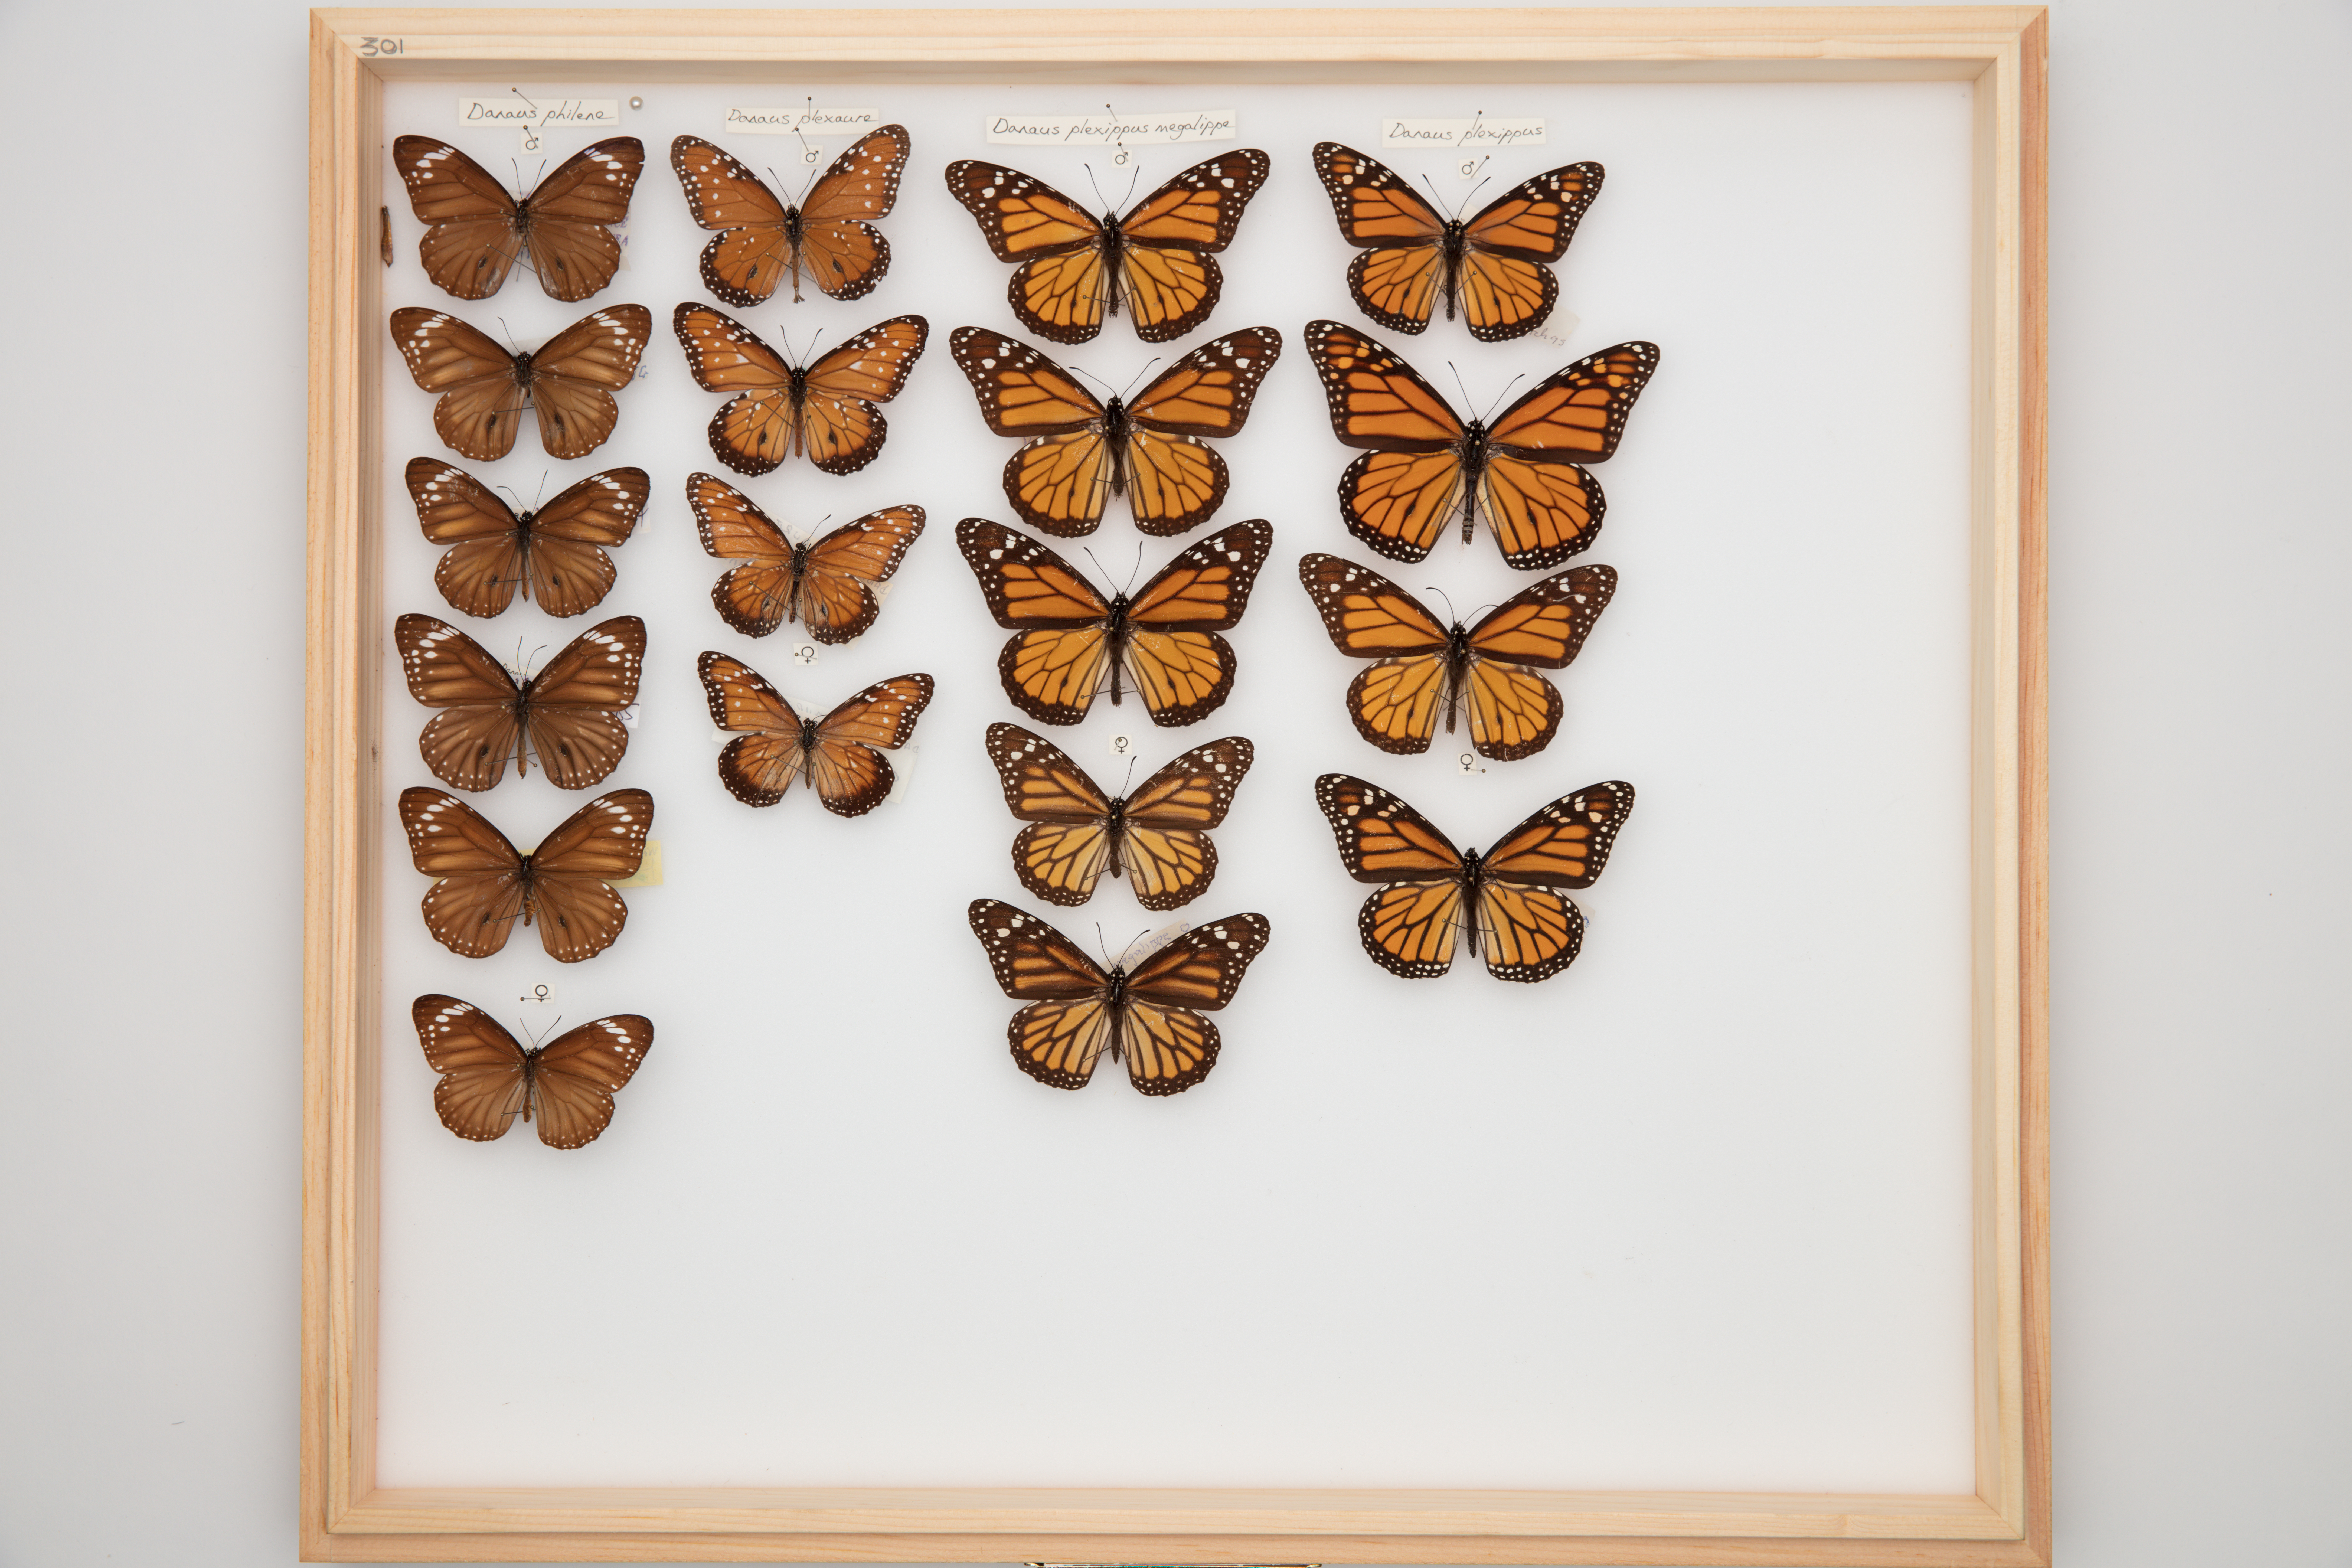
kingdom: Animalia
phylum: Arthropoda
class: Insecta
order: Lepidoptera
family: Nymphalidae
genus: Danaus
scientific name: Danaus plexippus
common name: Monarch
